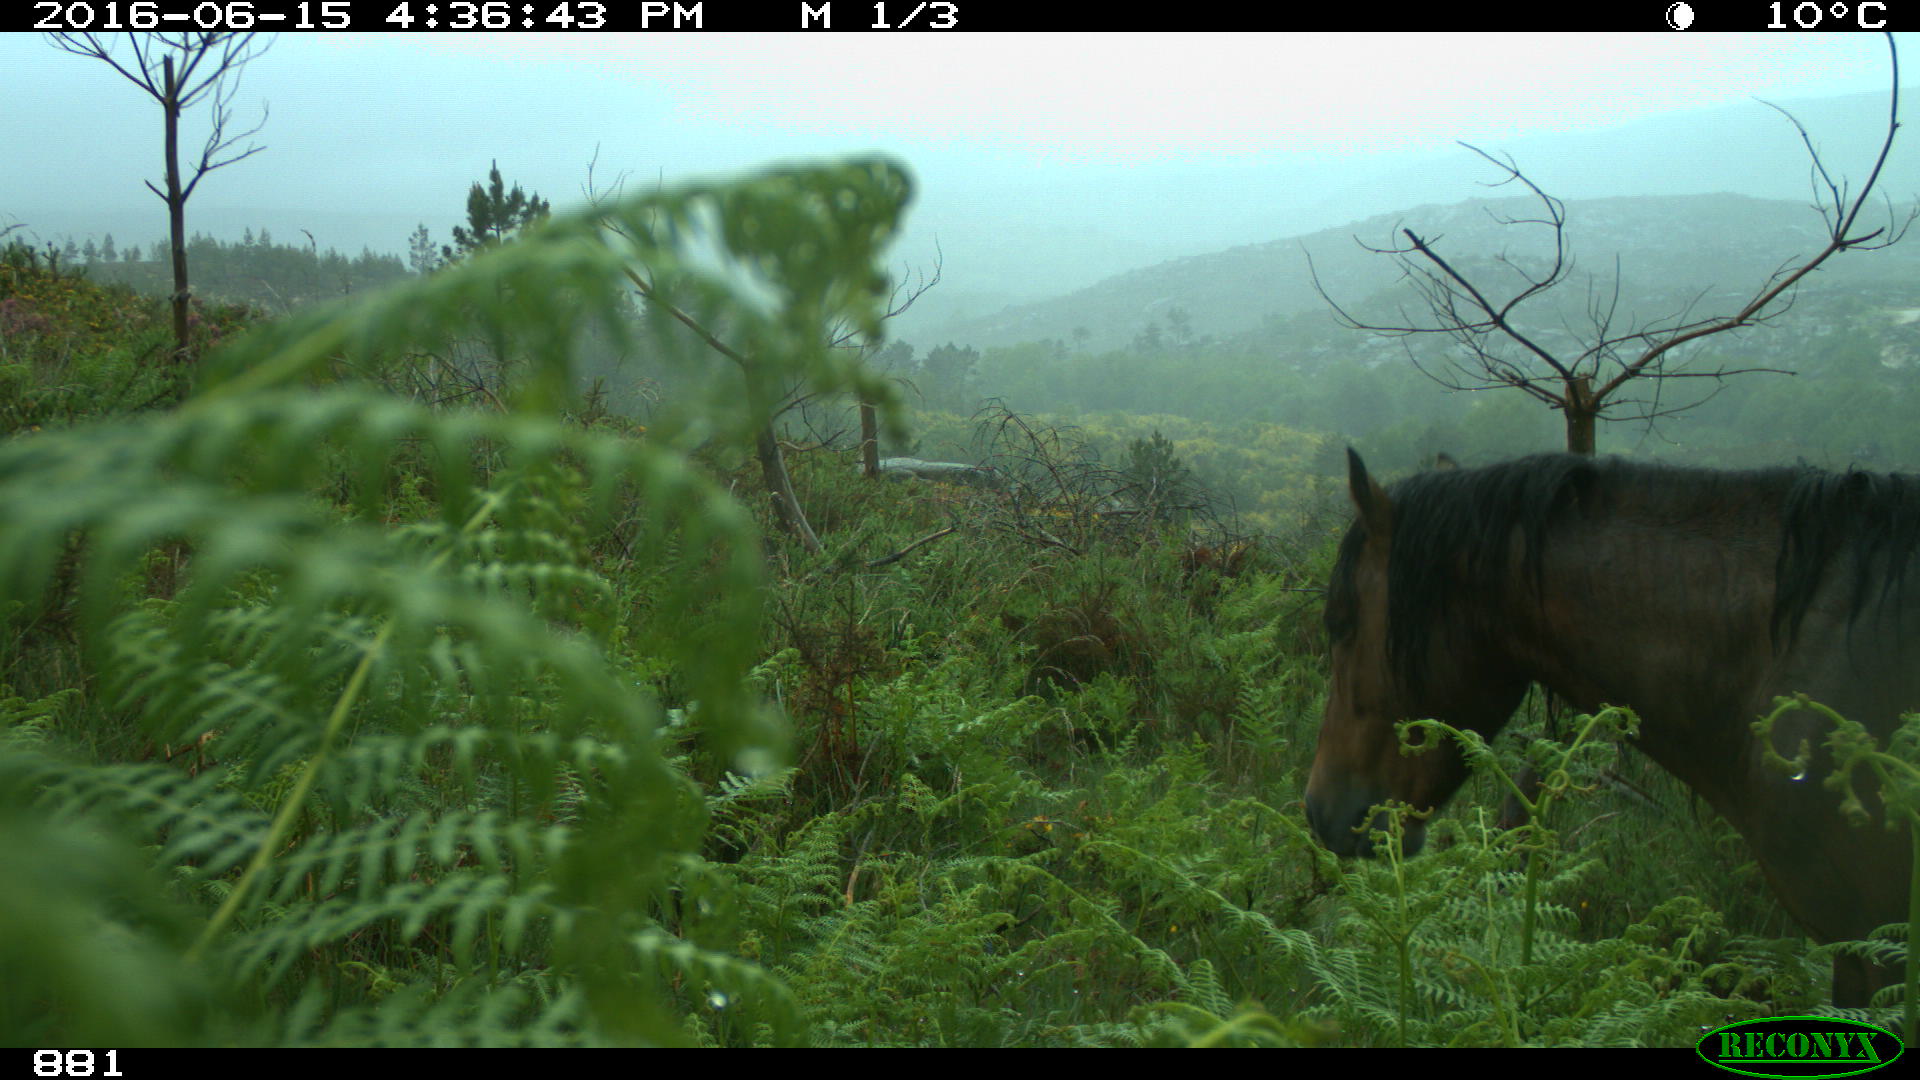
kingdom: Animalia
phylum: Chordata
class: Mammalia
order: Perissodactyla
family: Equidae
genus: Equus
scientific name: Equus caballus
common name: Horse
